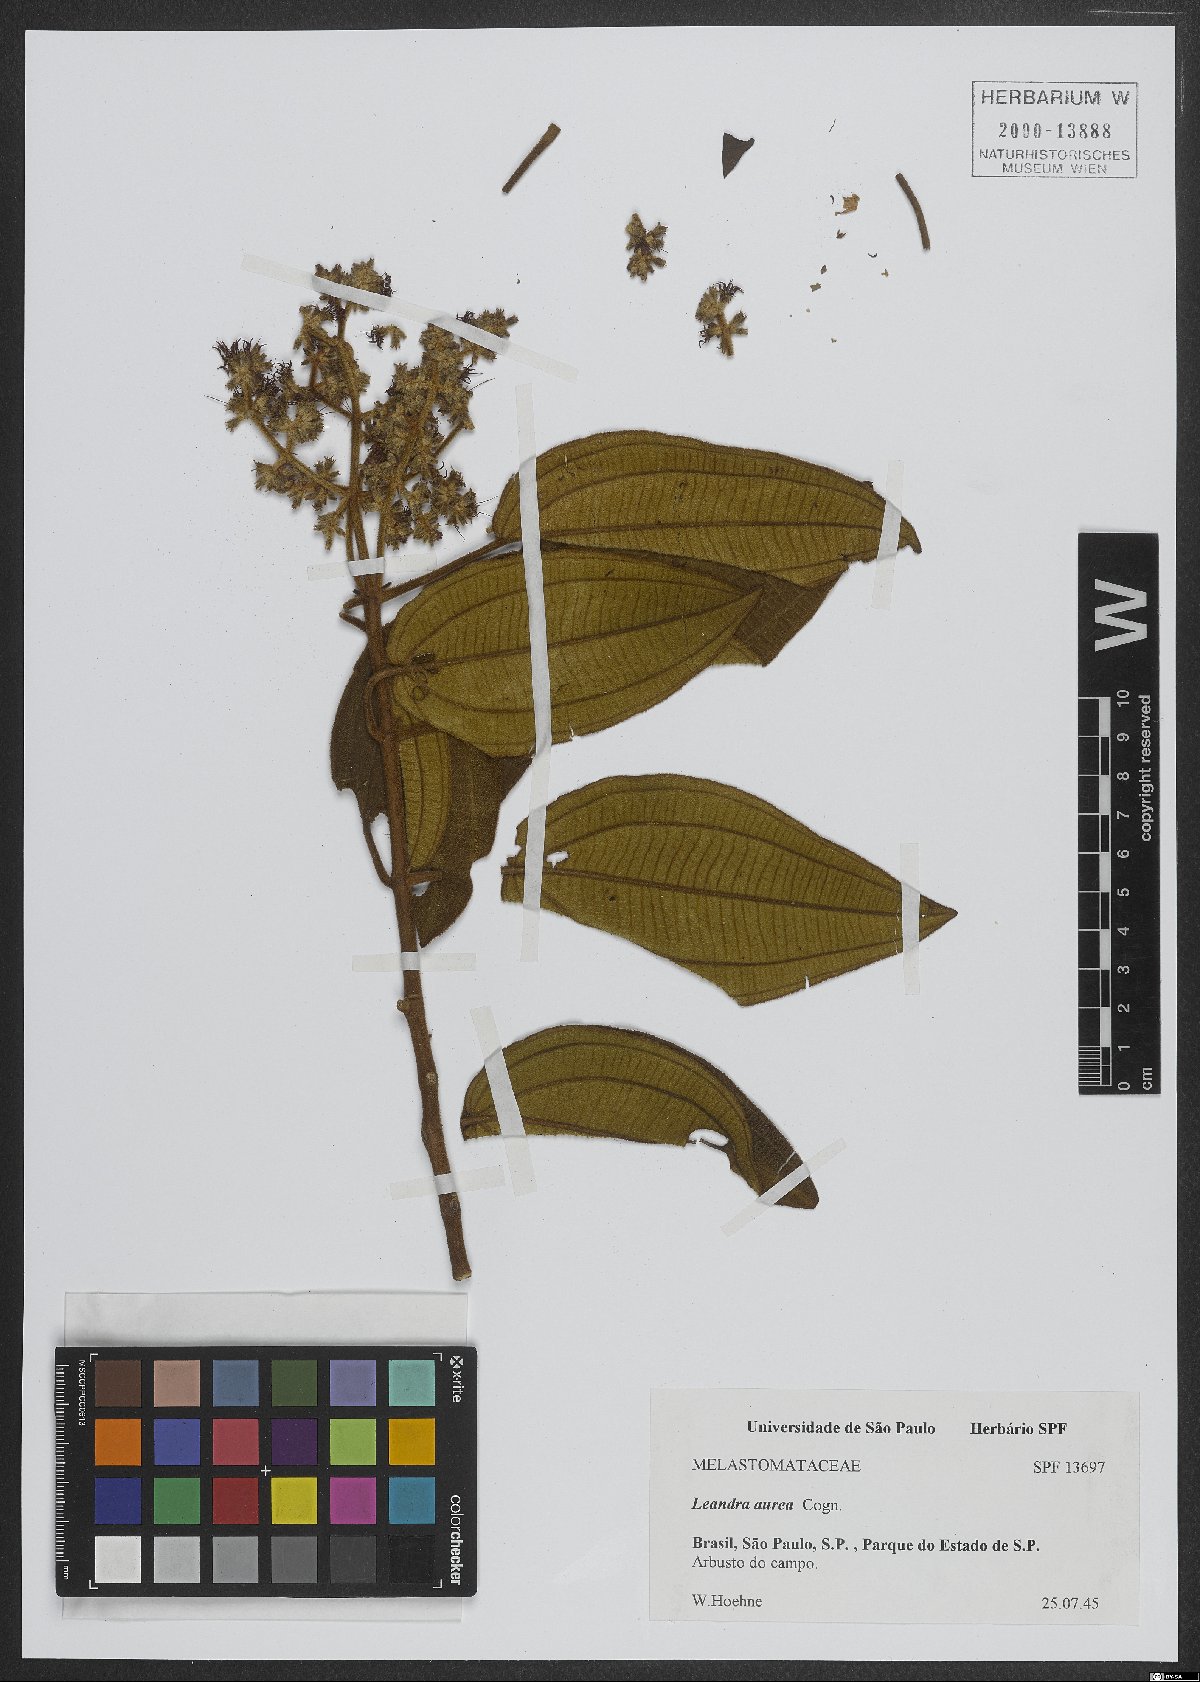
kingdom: Plantae
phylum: Tracheophyta
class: Magnoliopsida
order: Myrtales
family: Melastomataceae
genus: Miconia
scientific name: Miconia auricoma
